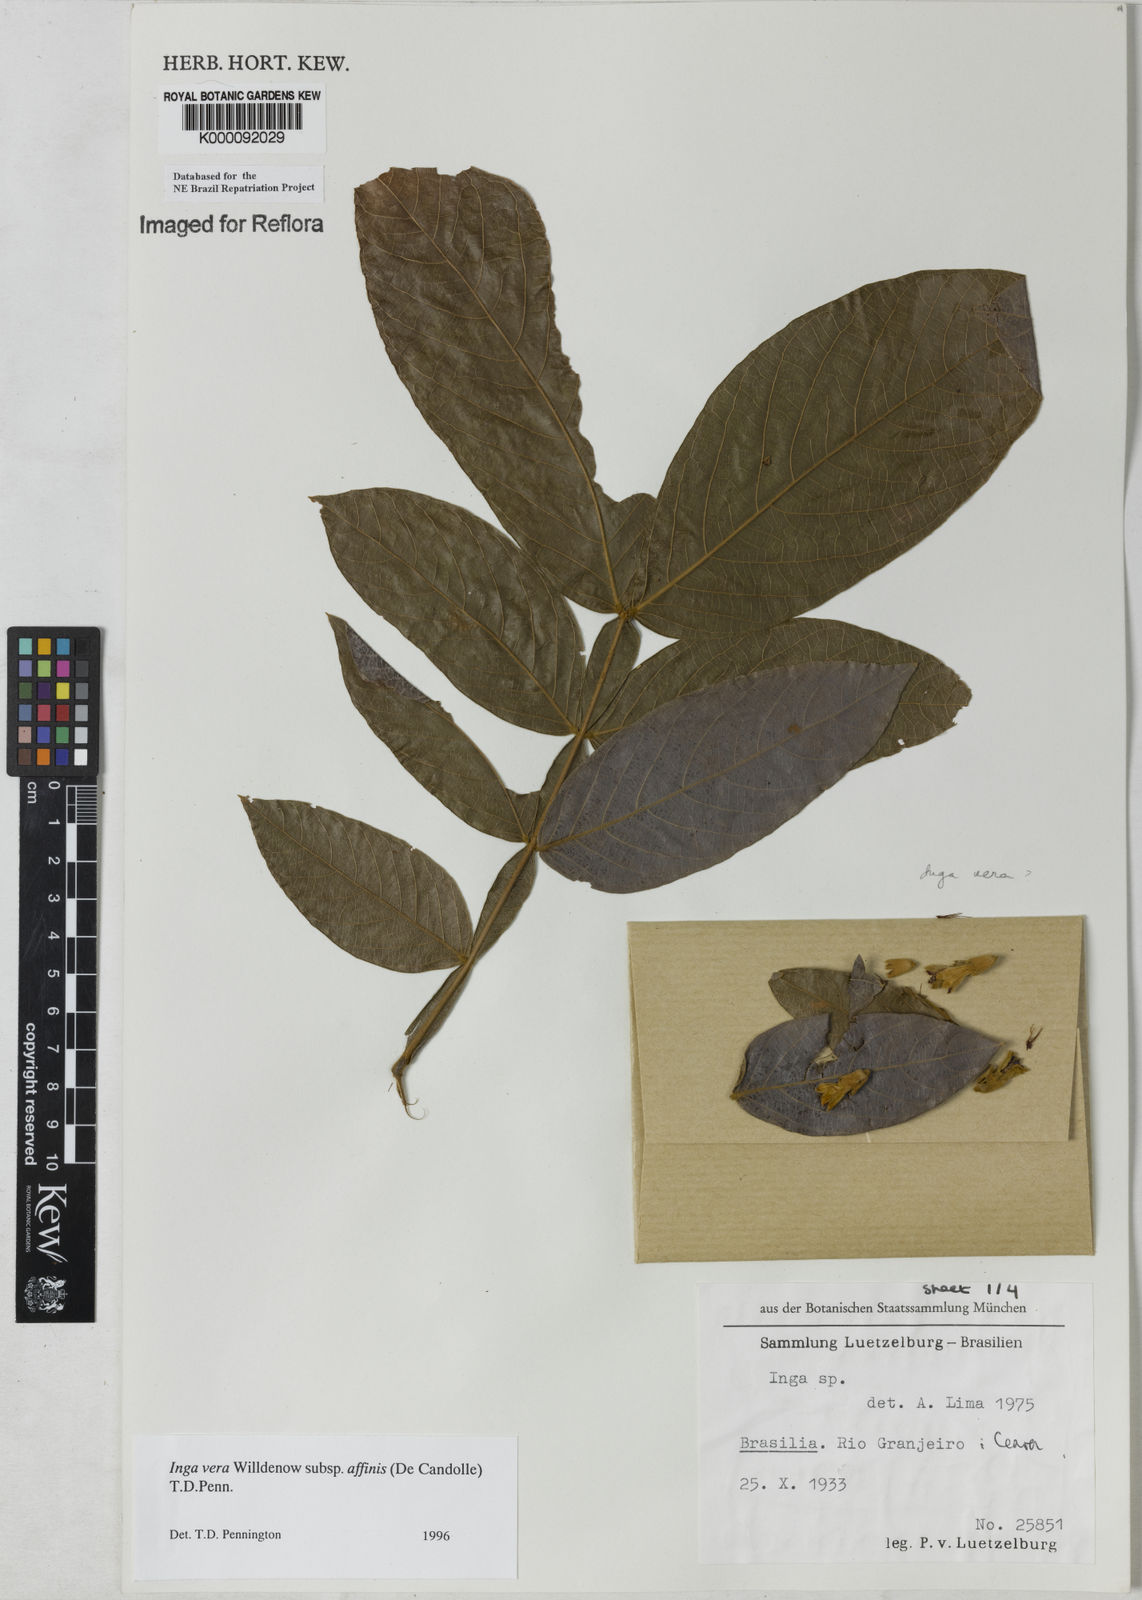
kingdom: Plantae
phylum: Tracheophyta
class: Magnoliopsida
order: Fabales
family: Fabaceae
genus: Inga
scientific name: Inga affinis
